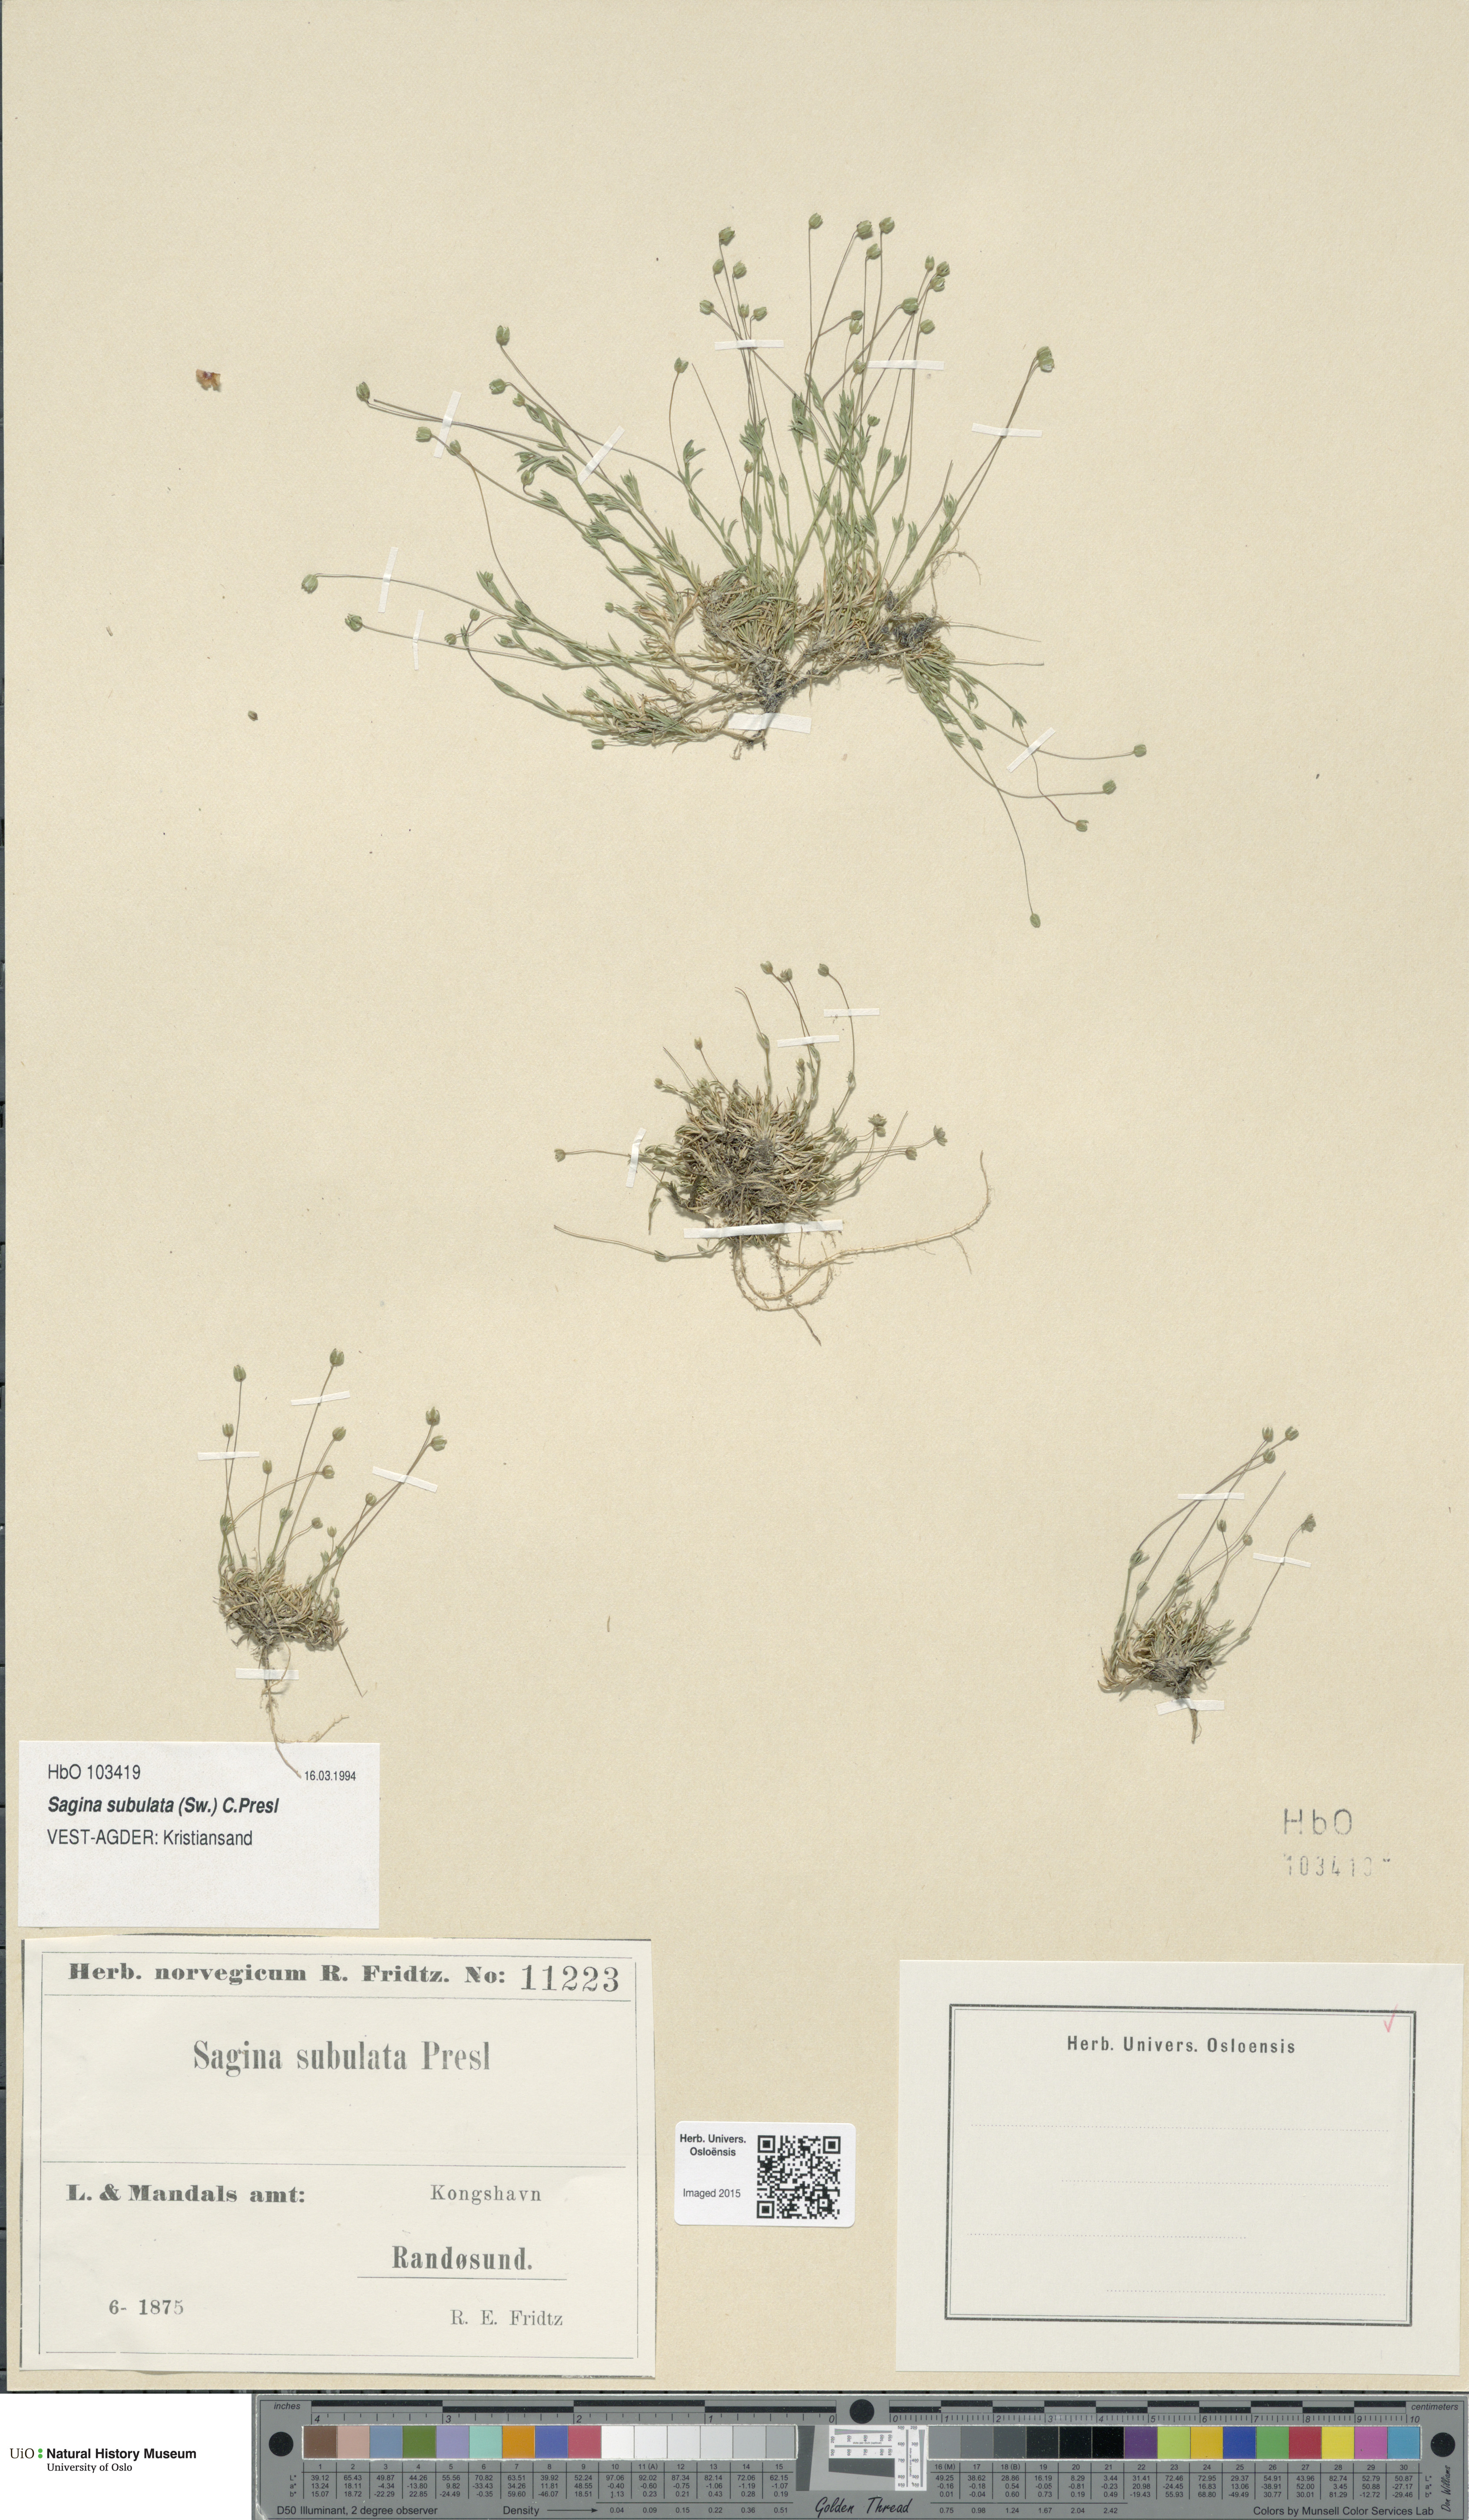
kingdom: Plantae
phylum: Tracheophyta
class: Magnoliopsida
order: Caryophyllales
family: Caryophyllaceae
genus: Sagina
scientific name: Sagina alexandrae
